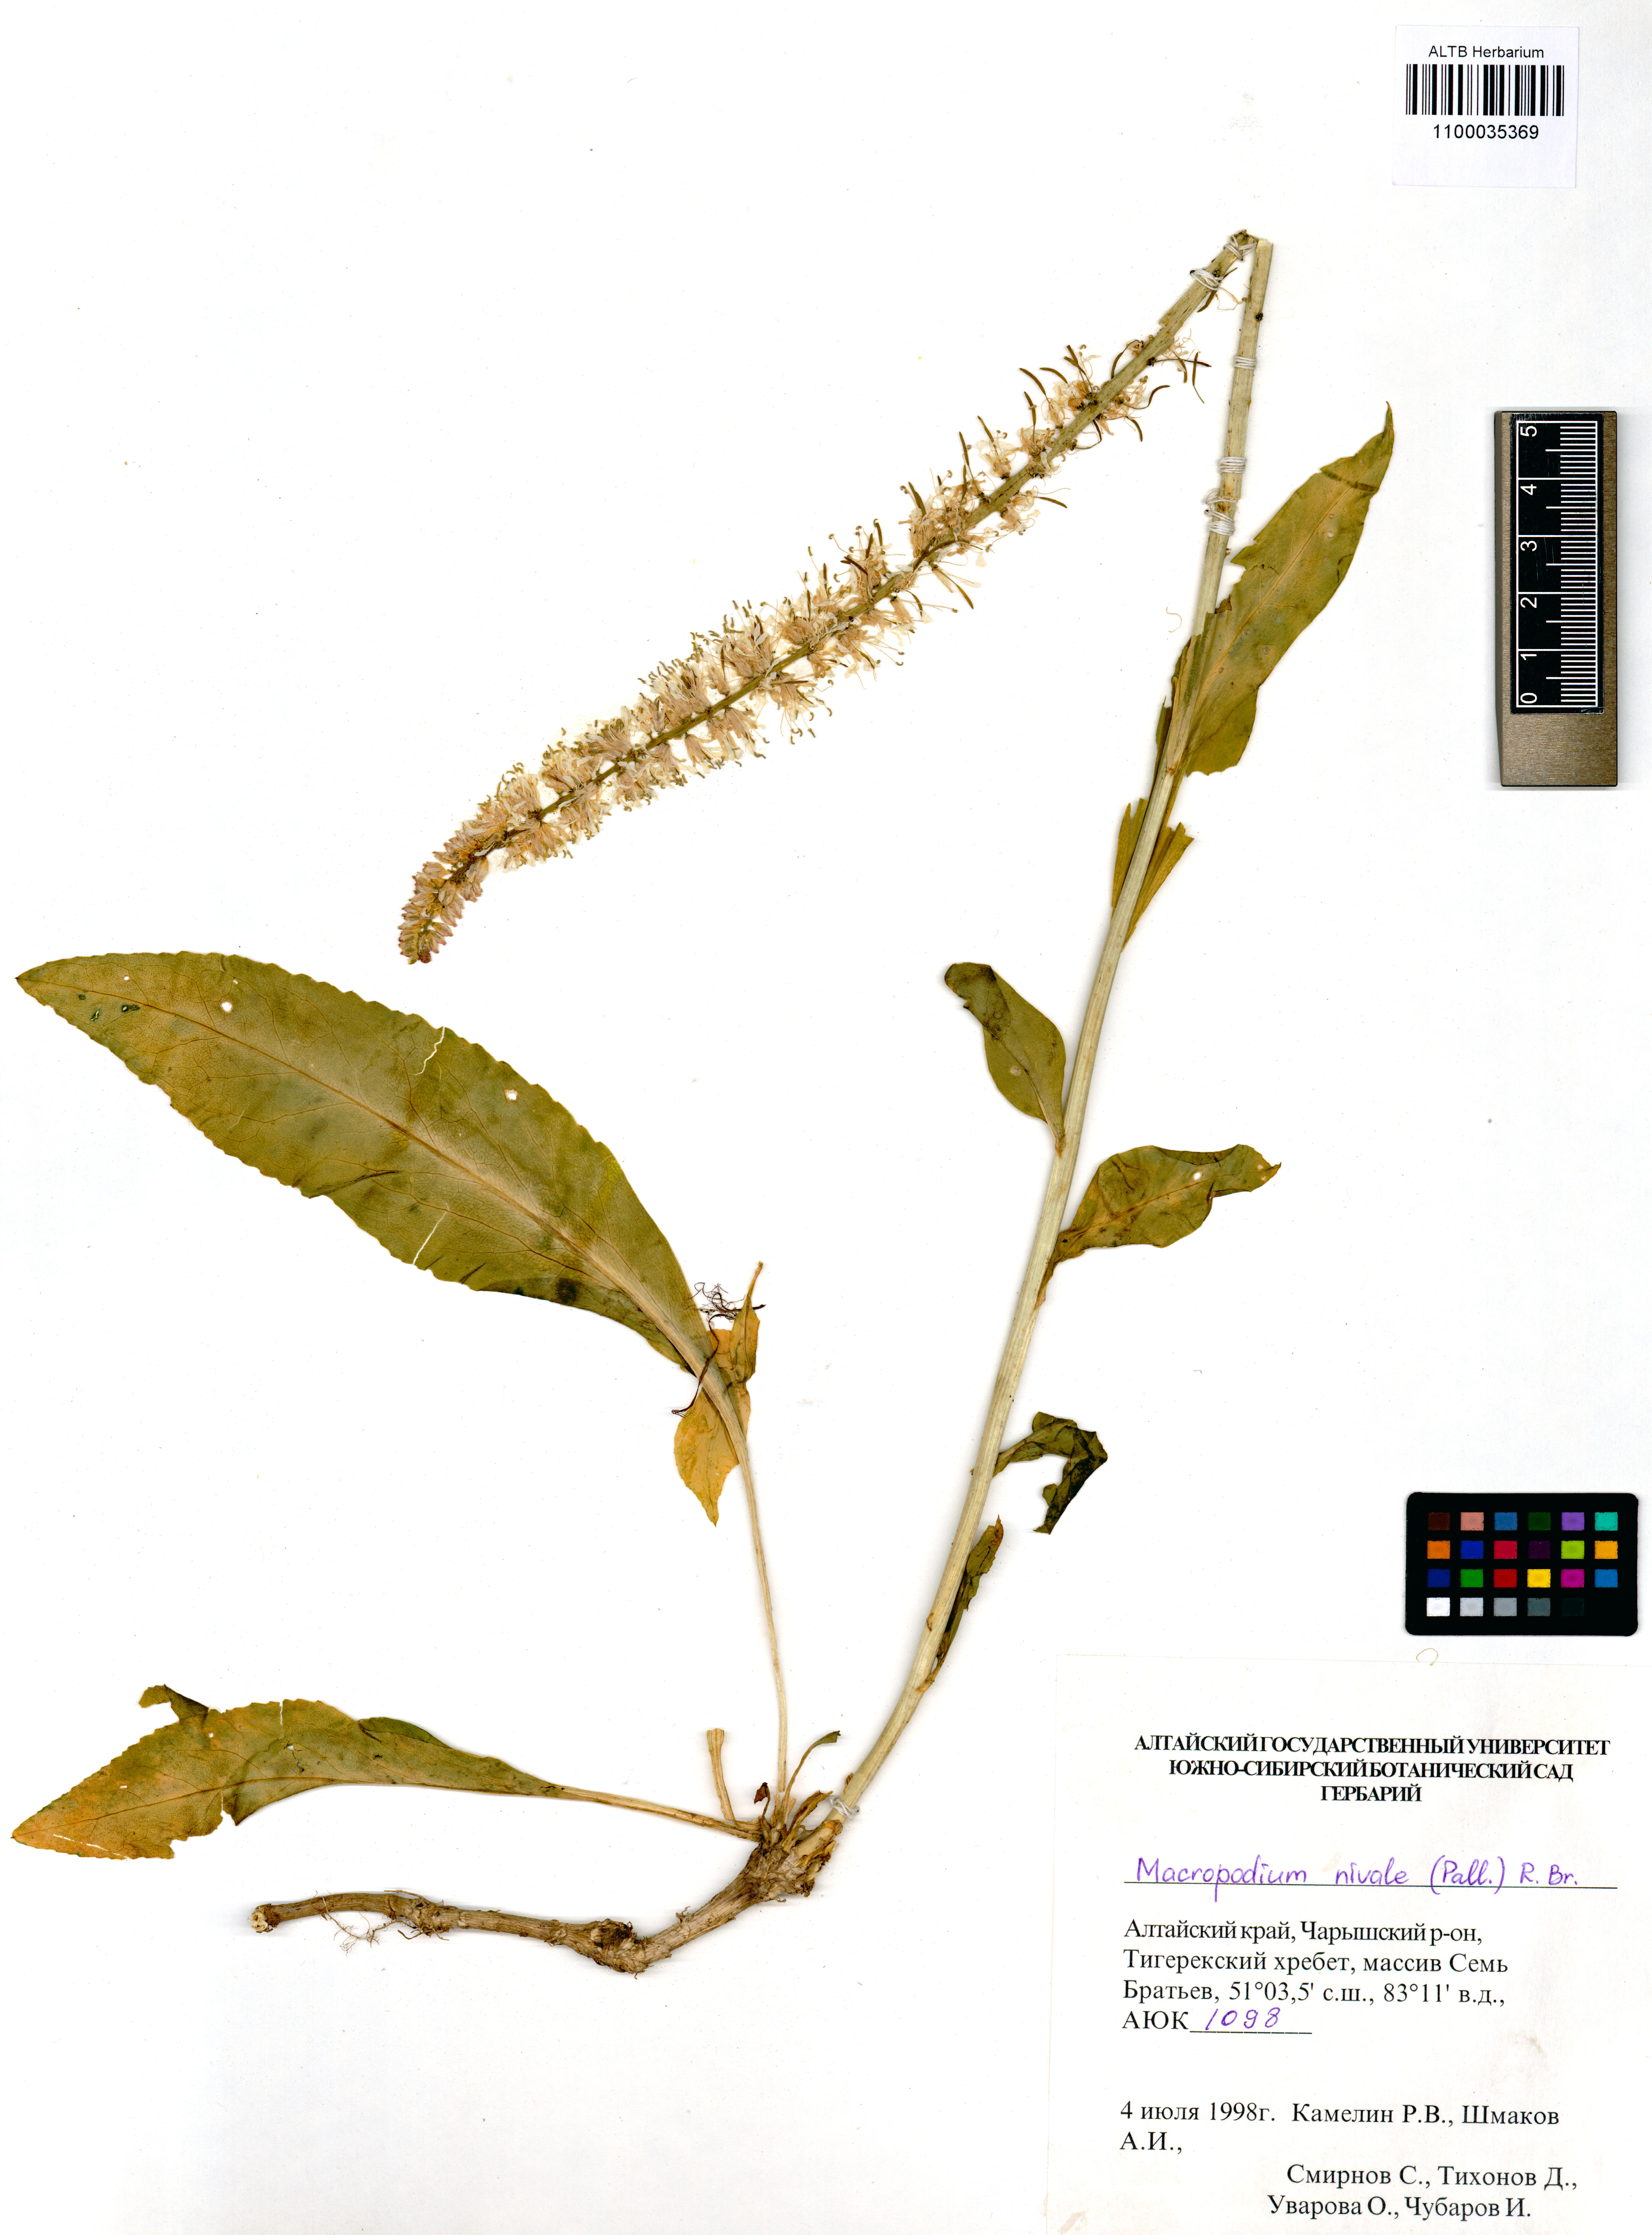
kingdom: Plantae
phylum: Tracheophyta
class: Magnoliopsida
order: Brassicales
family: Brassicaceae
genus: Macropodium
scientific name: Macropodium nivale
